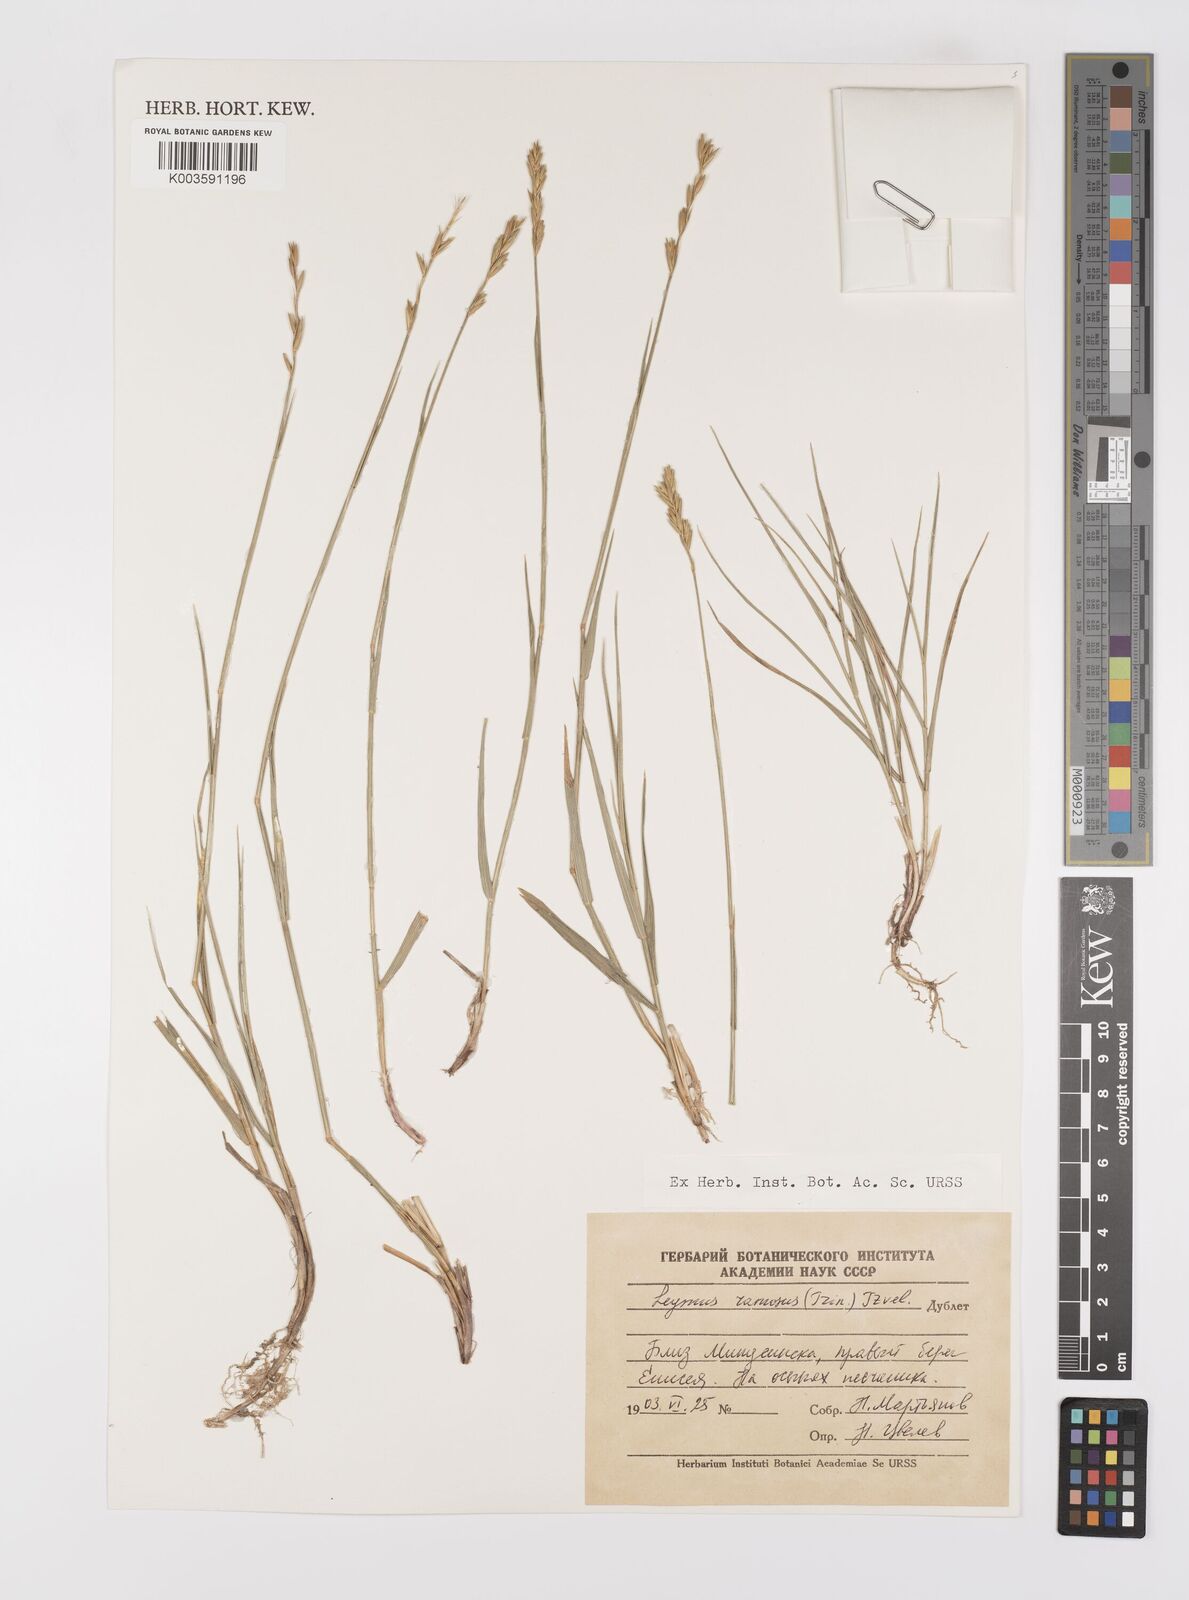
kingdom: Plantae
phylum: Tracheophyta
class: Liliopsida
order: Poales
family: Poaceae
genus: Leymus
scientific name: Leymus ramosus
